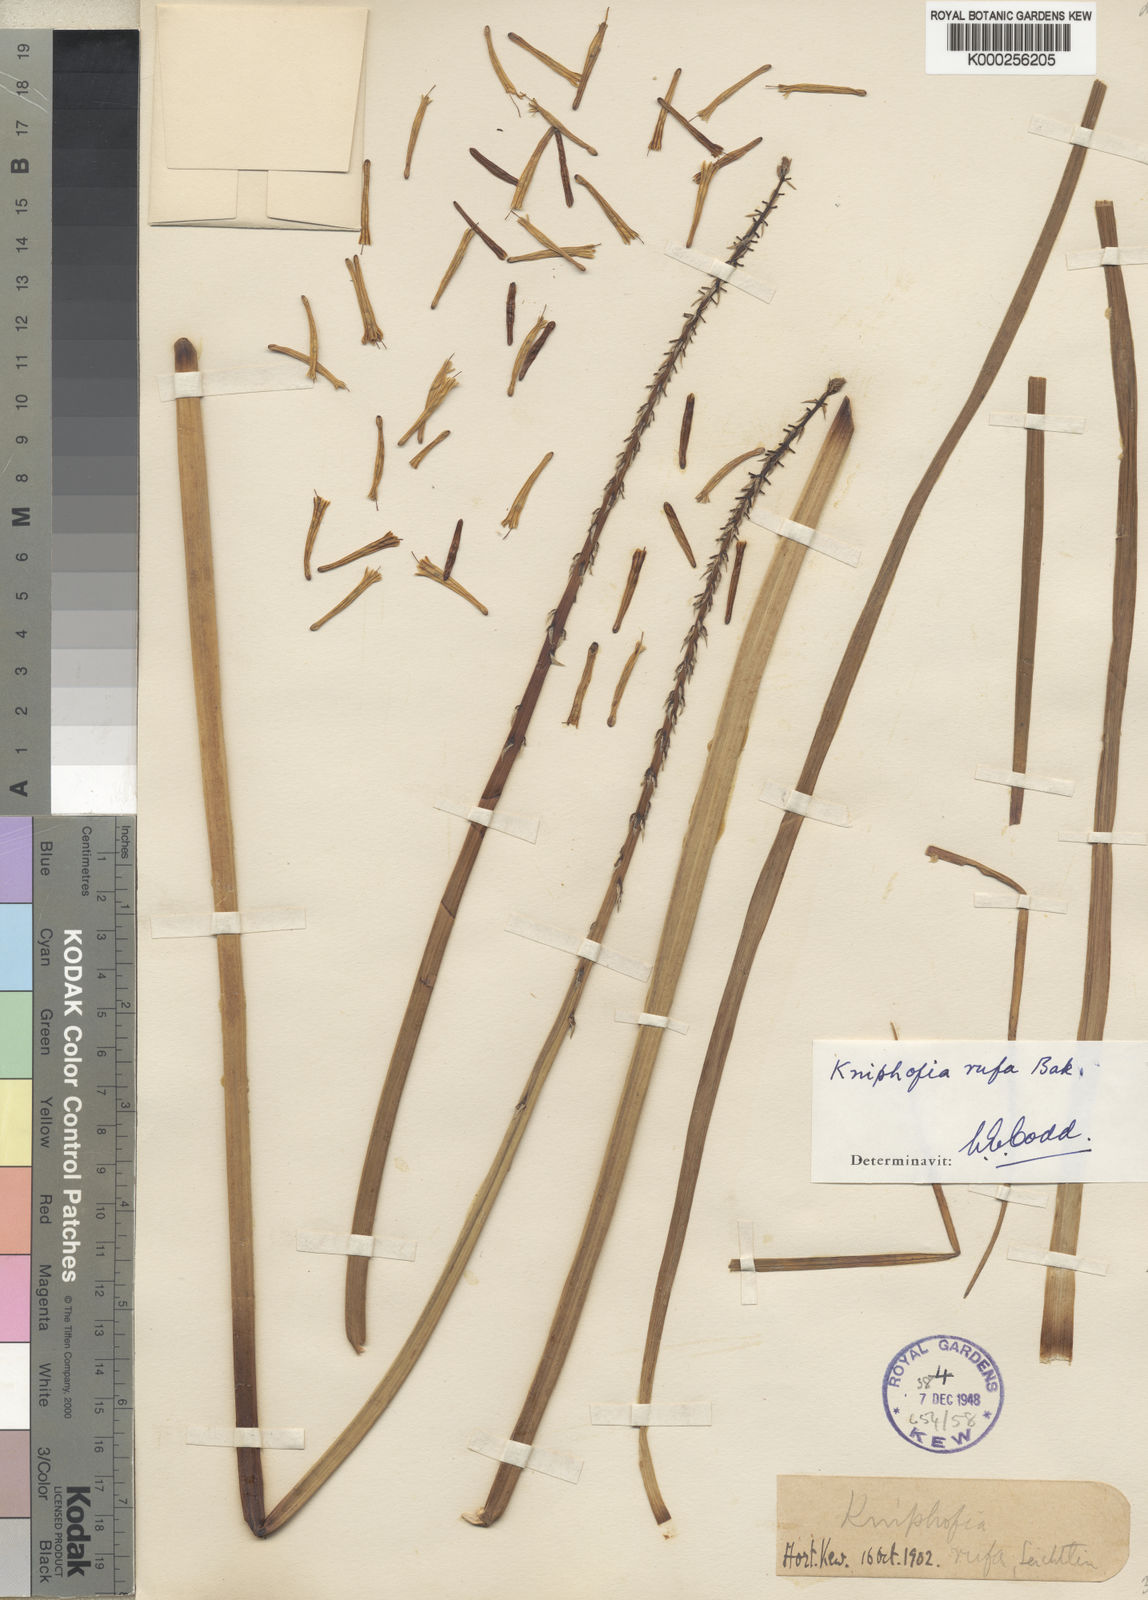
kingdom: Plantae
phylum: Tracheophyta
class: Liliopsida
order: Asparagales
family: Asphodelaceae
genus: Kniphofia
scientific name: Kniphofia rufa
